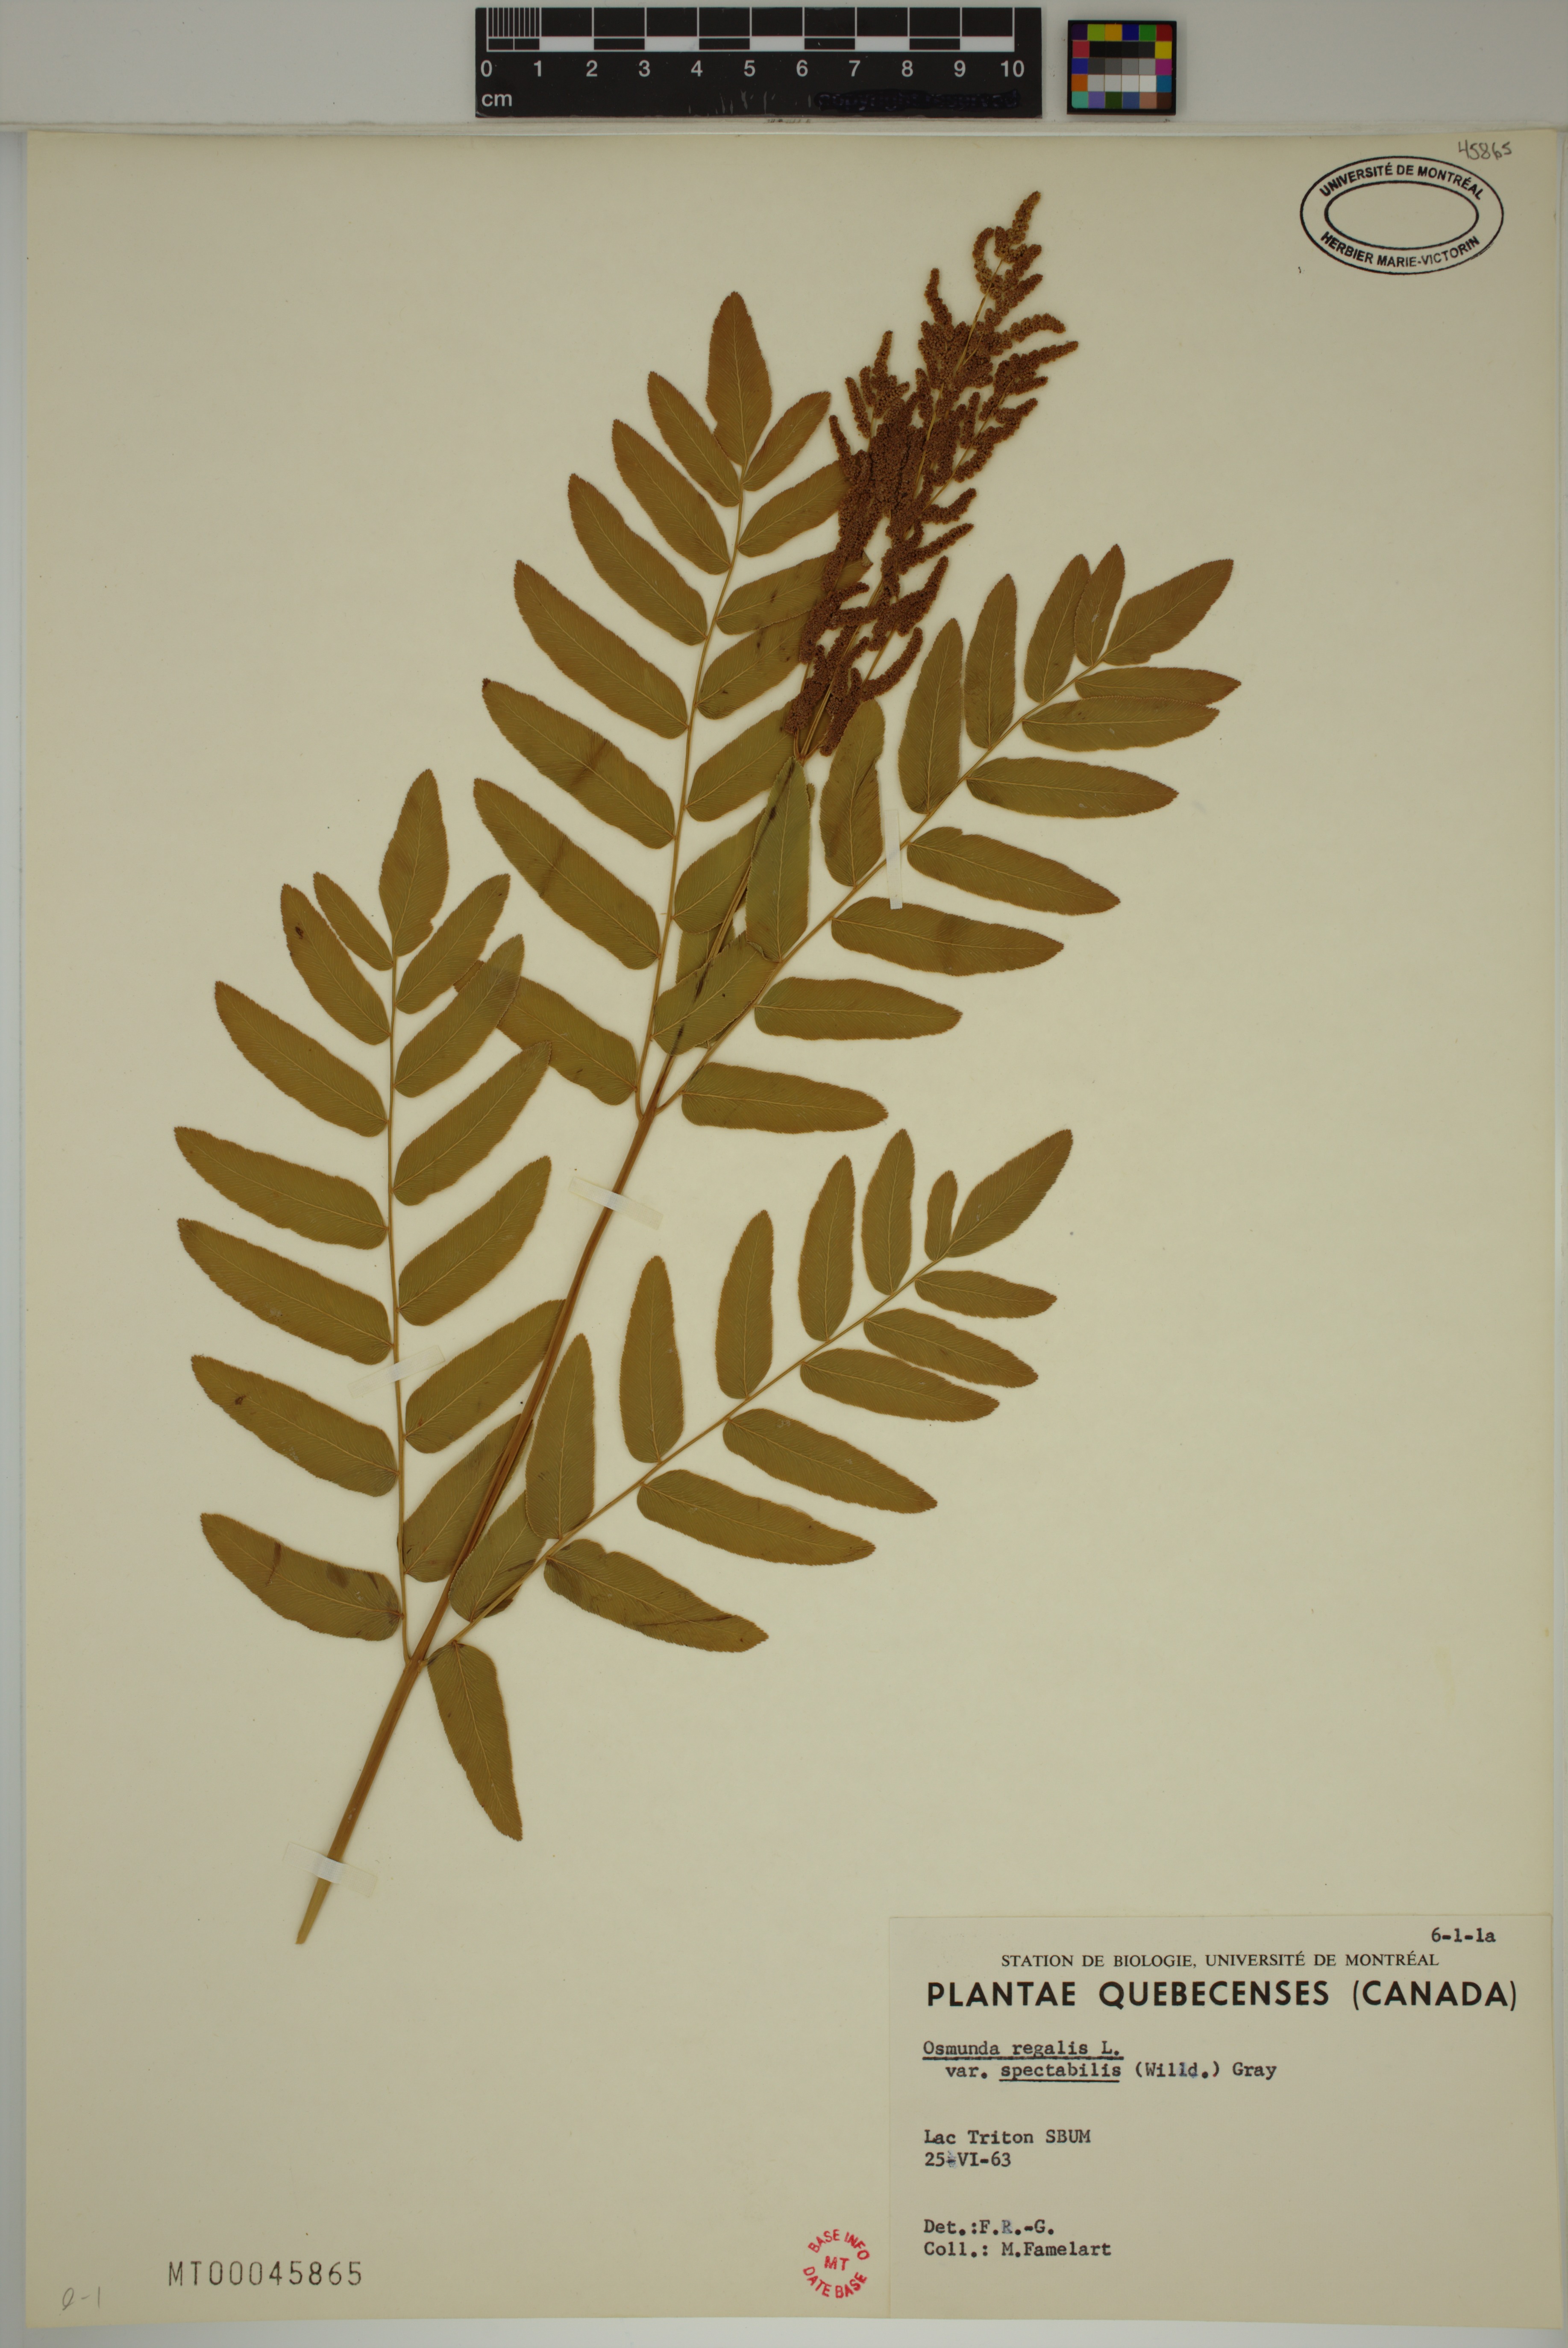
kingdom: Plantae
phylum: Tracheophyta
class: Polypodiopsida
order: Osmundales
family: Osmundaceae
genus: Osmunda
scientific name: Osmunda spectabilis
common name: American royal fern
